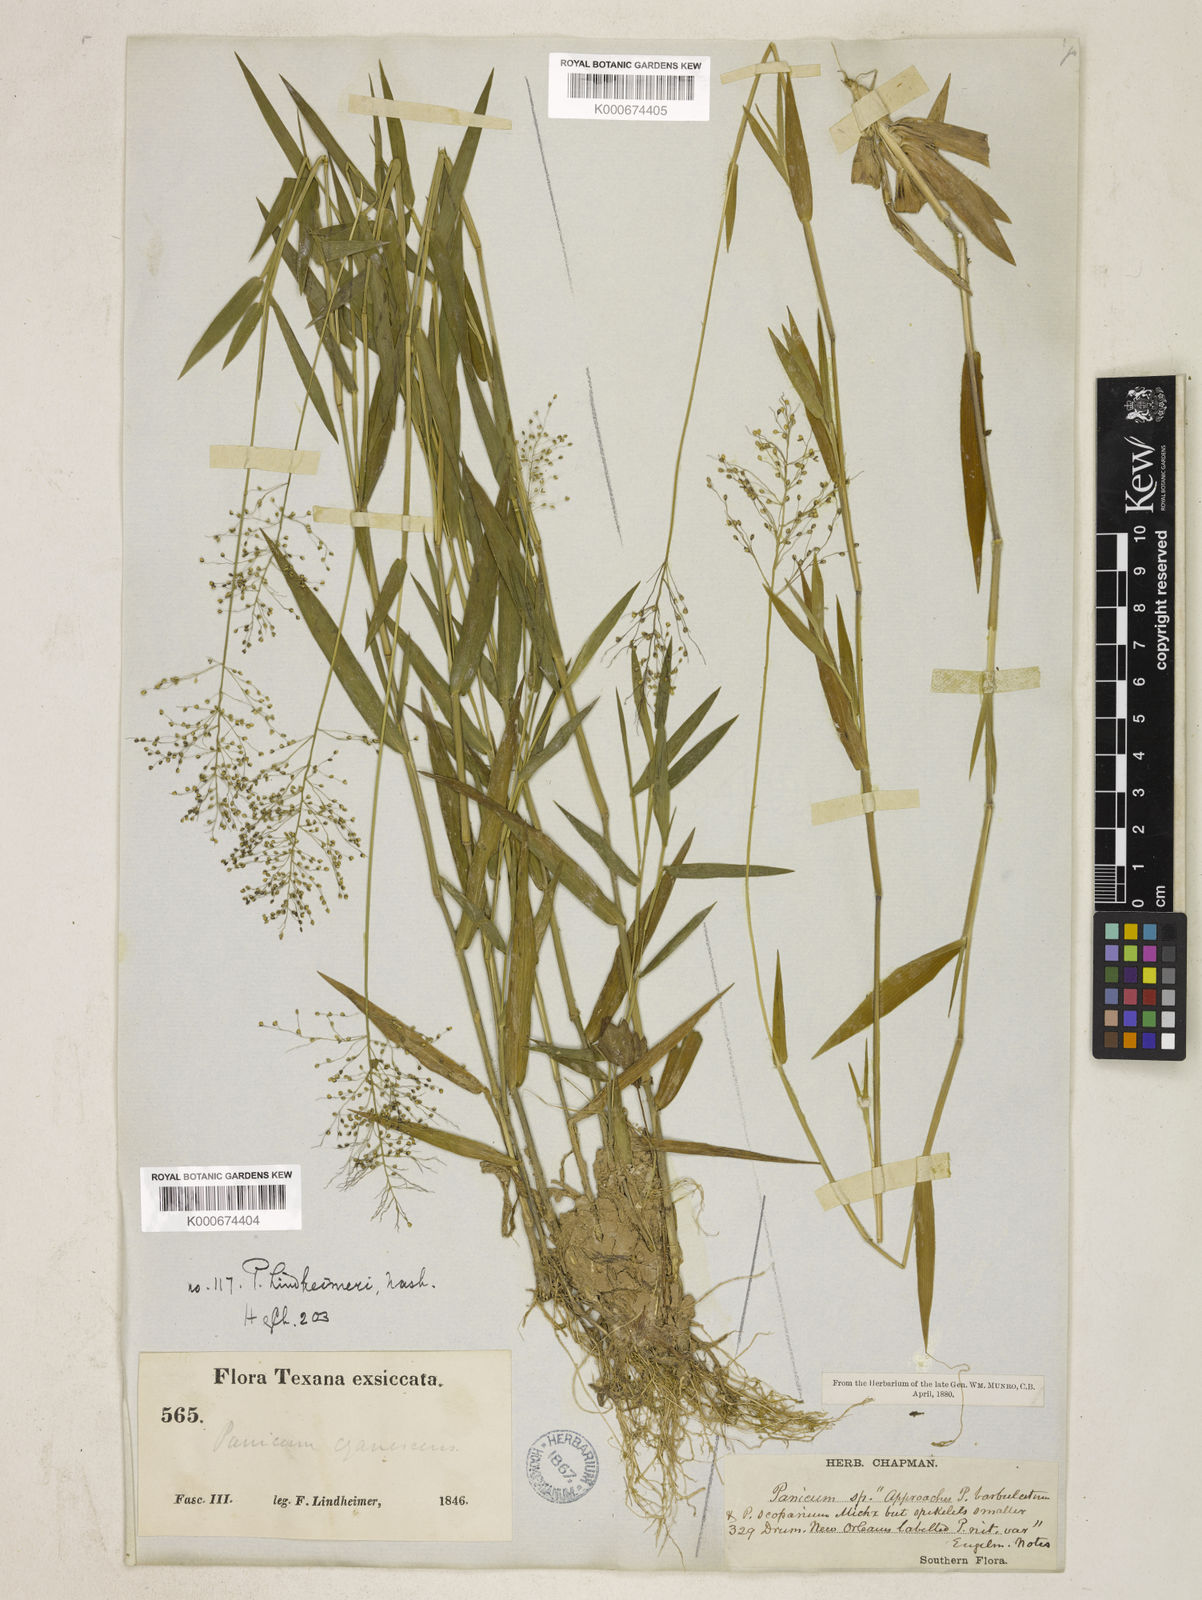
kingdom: Plantae
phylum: Tracheophyta
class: Liliopsida
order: Poales
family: Poaceae
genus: Dichanthelium
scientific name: Dichanthelium lindheimeri
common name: Lindheimer's panicgrass
